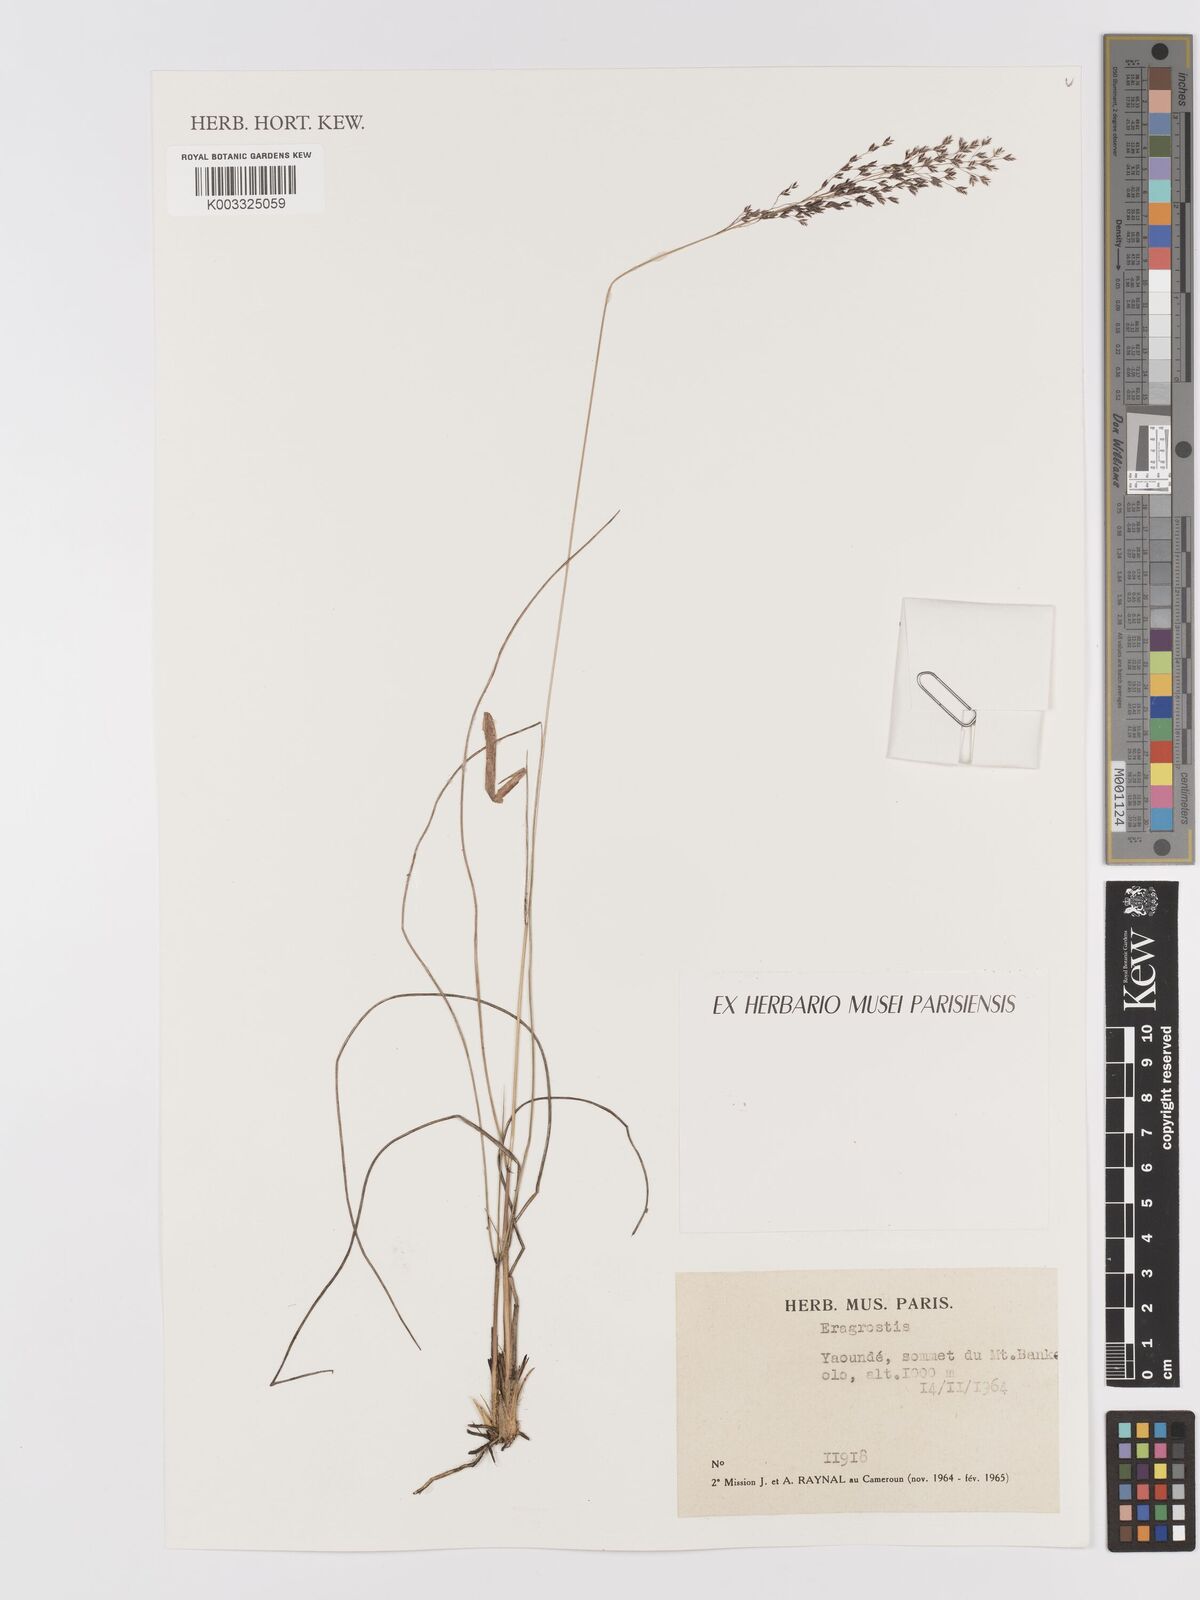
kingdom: Plantae
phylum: Tracheophyta
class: Liliopsida
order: Poales
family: Poaceae
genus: Eragrostis
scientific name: Eragrostis
